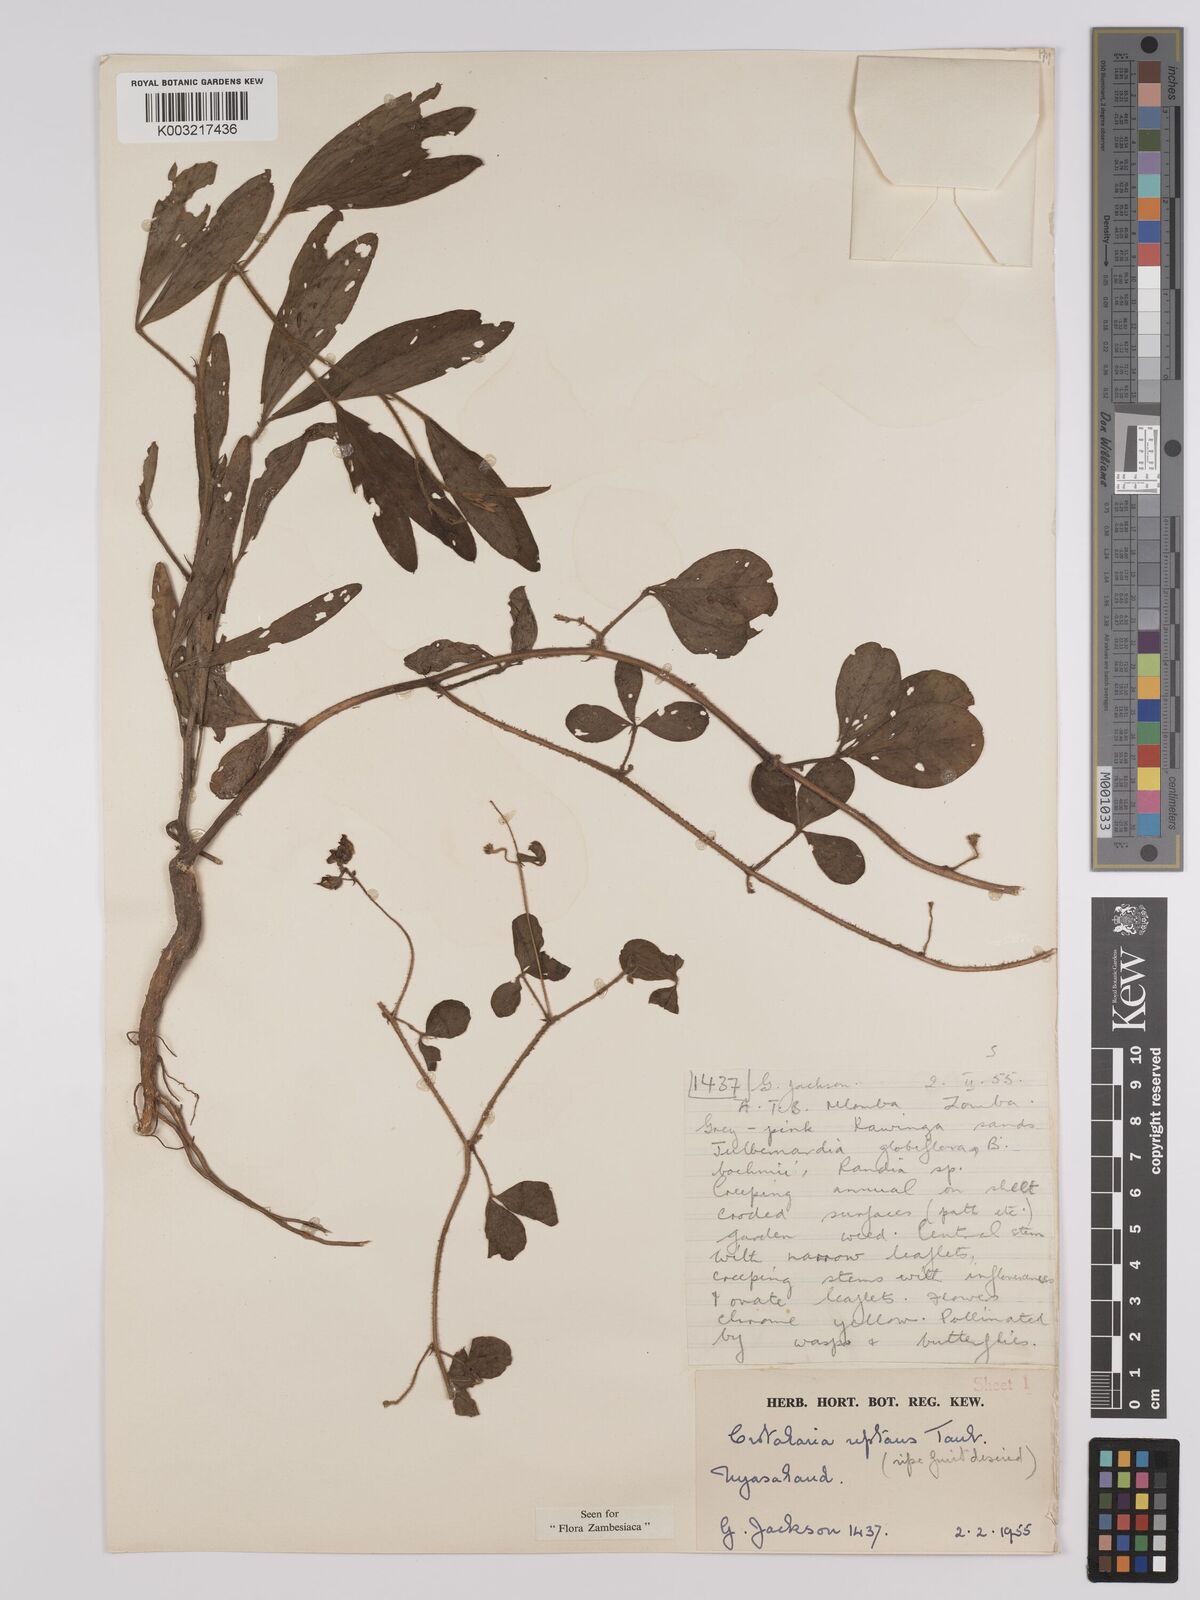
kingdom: Plantae
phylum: Tracheophyta
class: Magnoliopsida
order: Fabales
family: Fabaceae
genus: Crotalaria
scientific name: Crotalaria reptans
